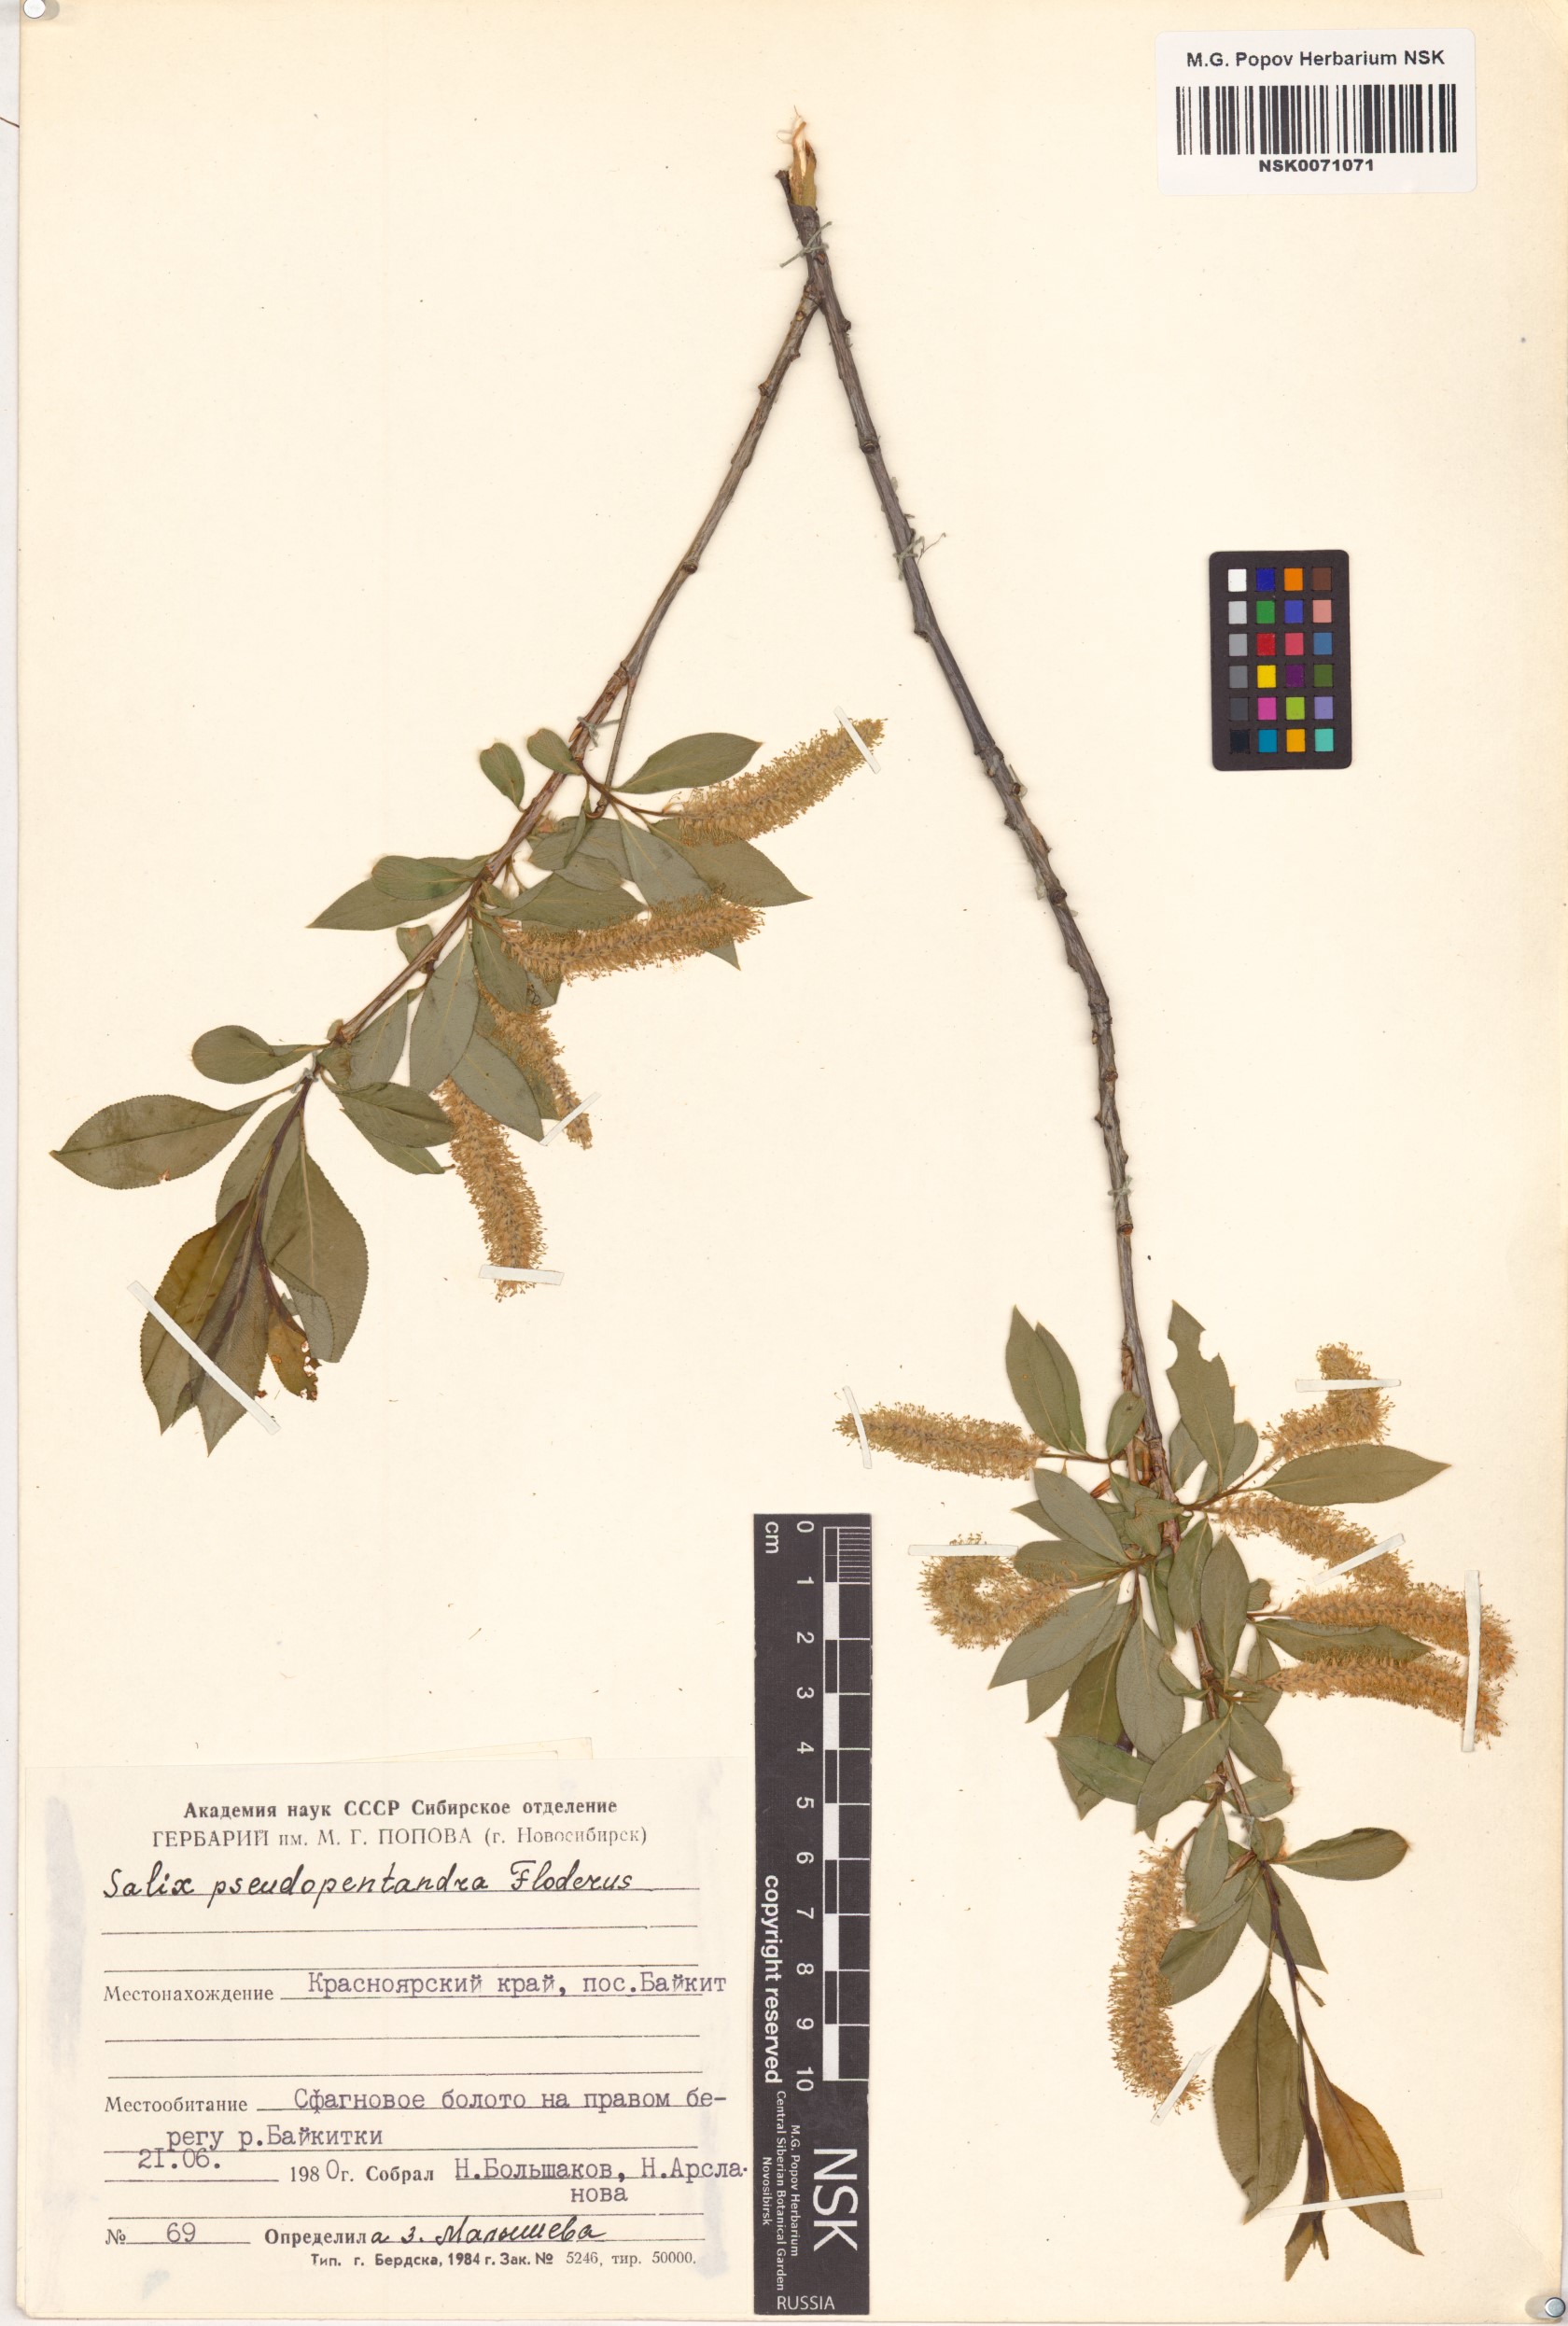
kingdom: Plantae
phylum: Tracheophyta
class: Magnoliopsida
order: Malpighiales
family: Salicaceae
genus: Salix
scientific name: Salix pseudopentandra
